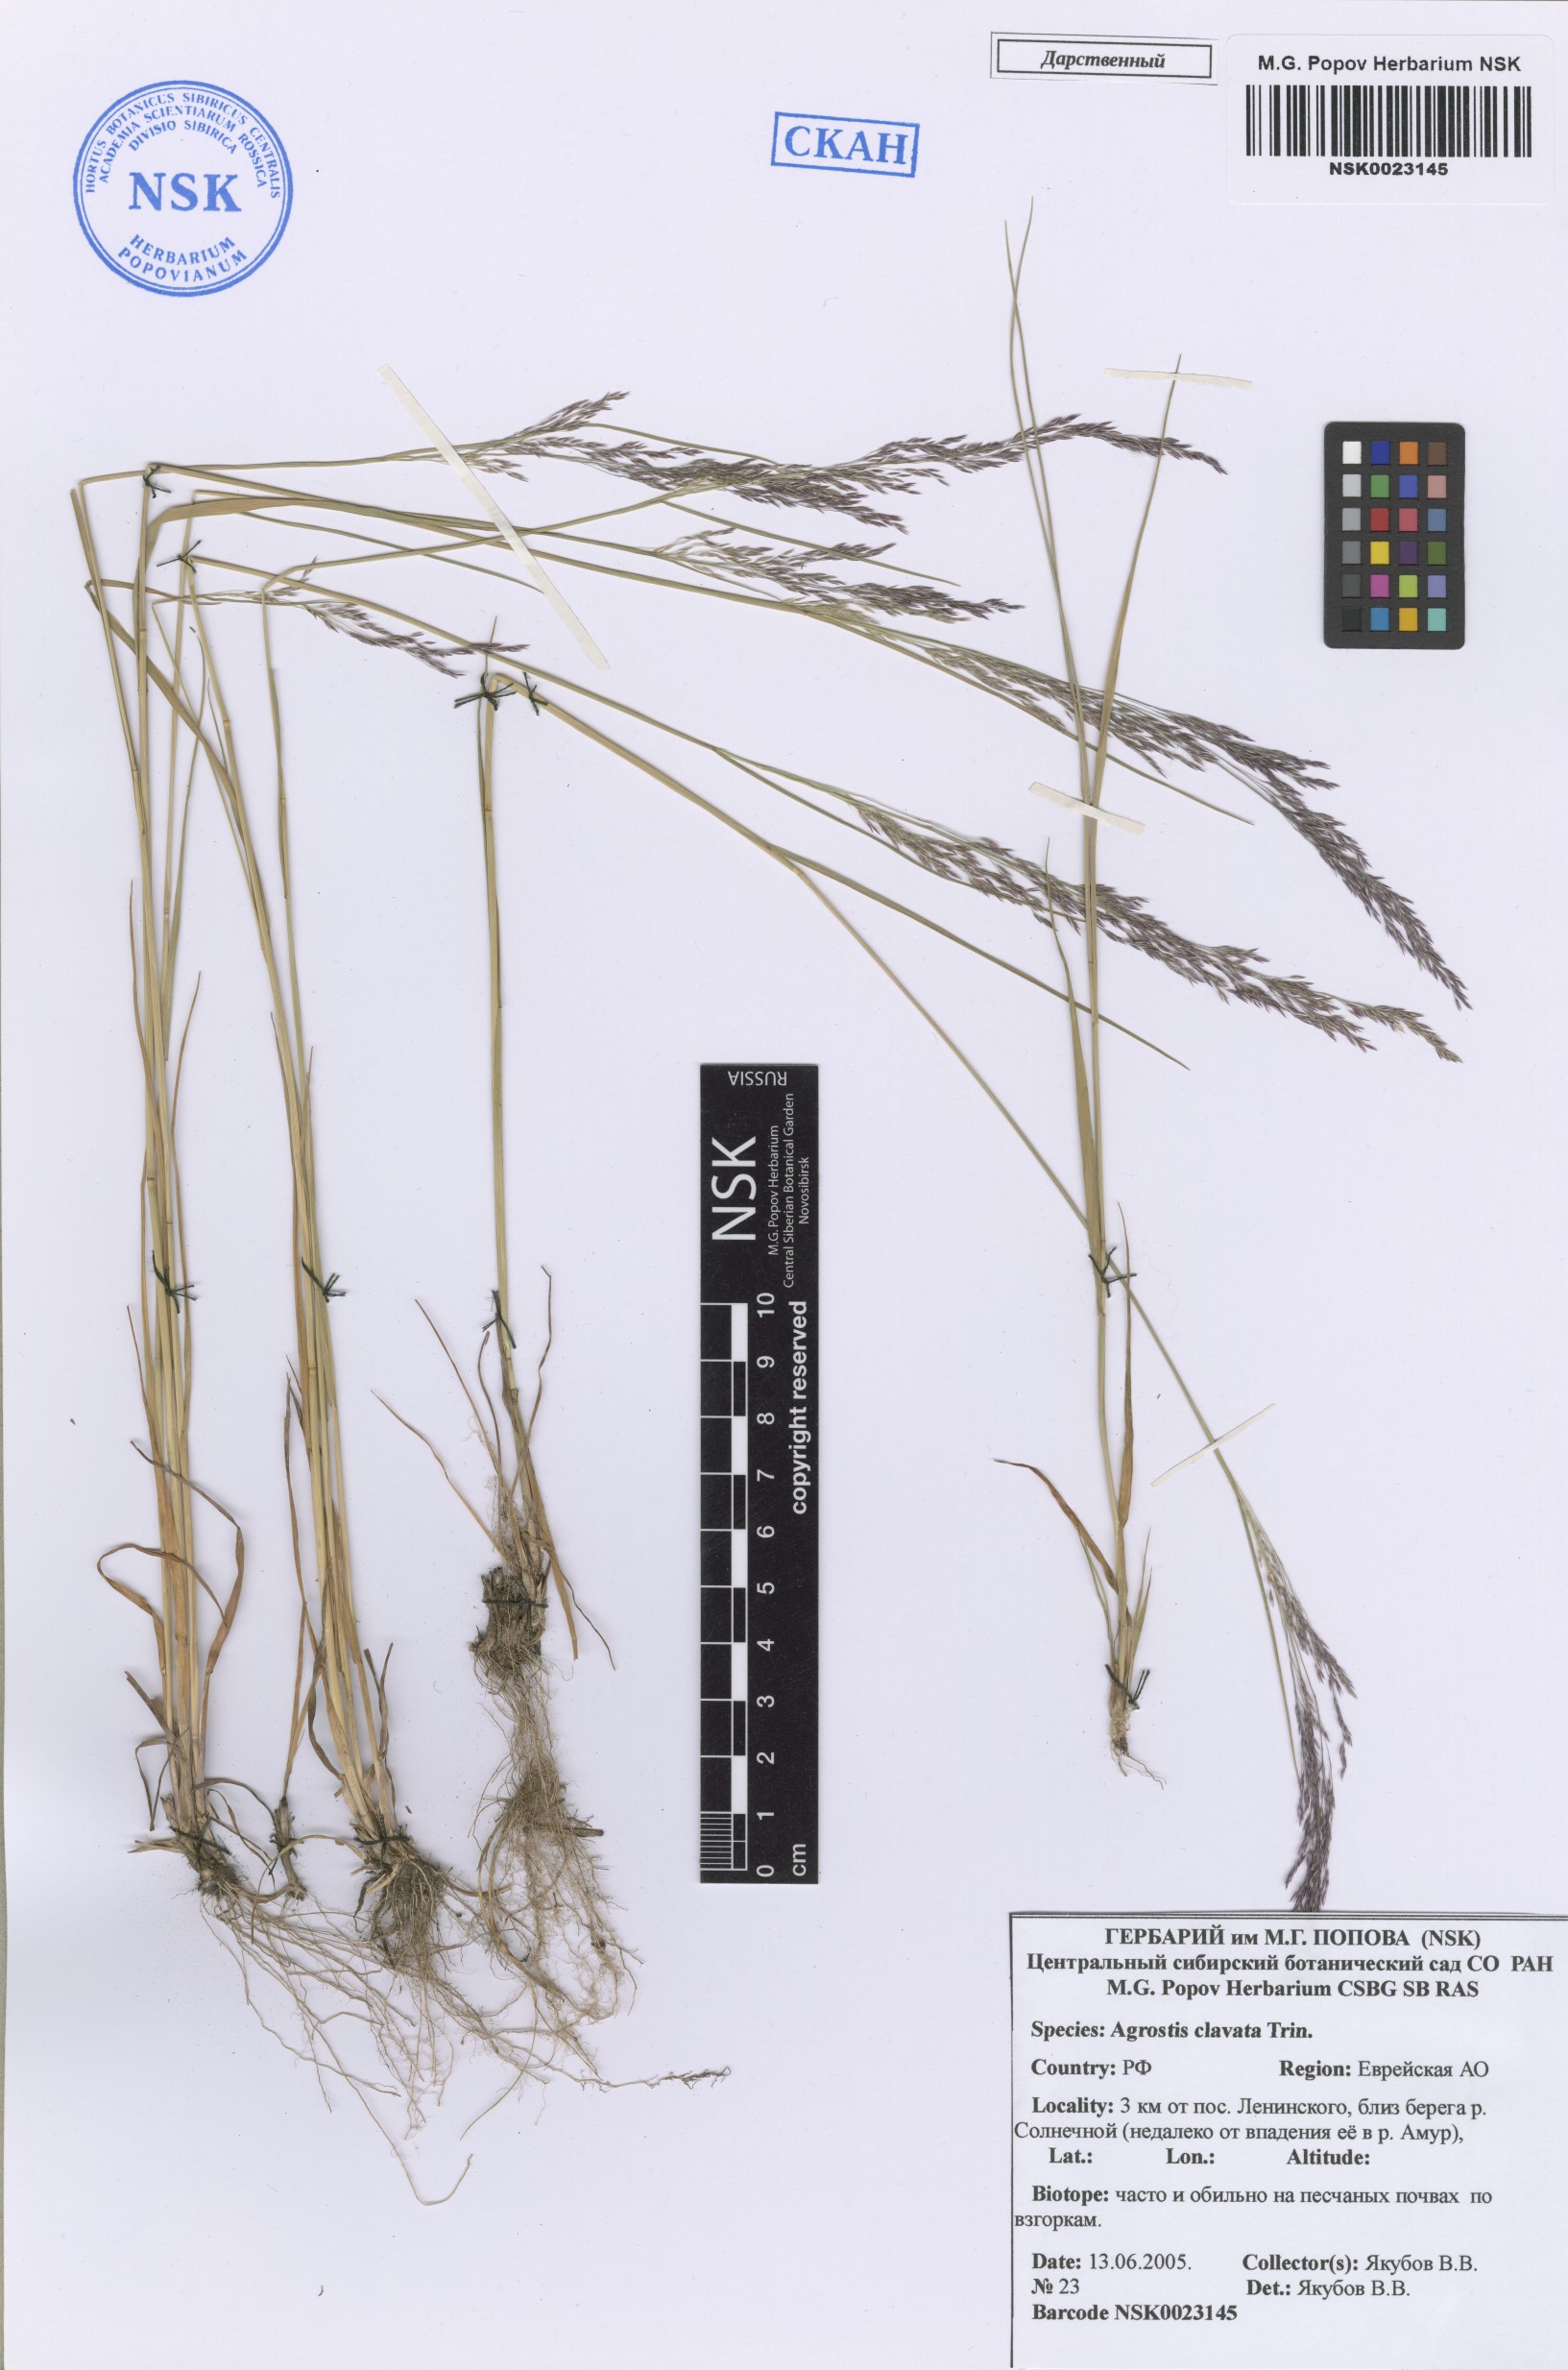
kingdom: Plantae
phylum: Tracheophyta
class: Liliopsida
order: Poales
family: Poaceae
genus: Agrostis
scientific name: Agrostis clavata
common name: Clavate bent
